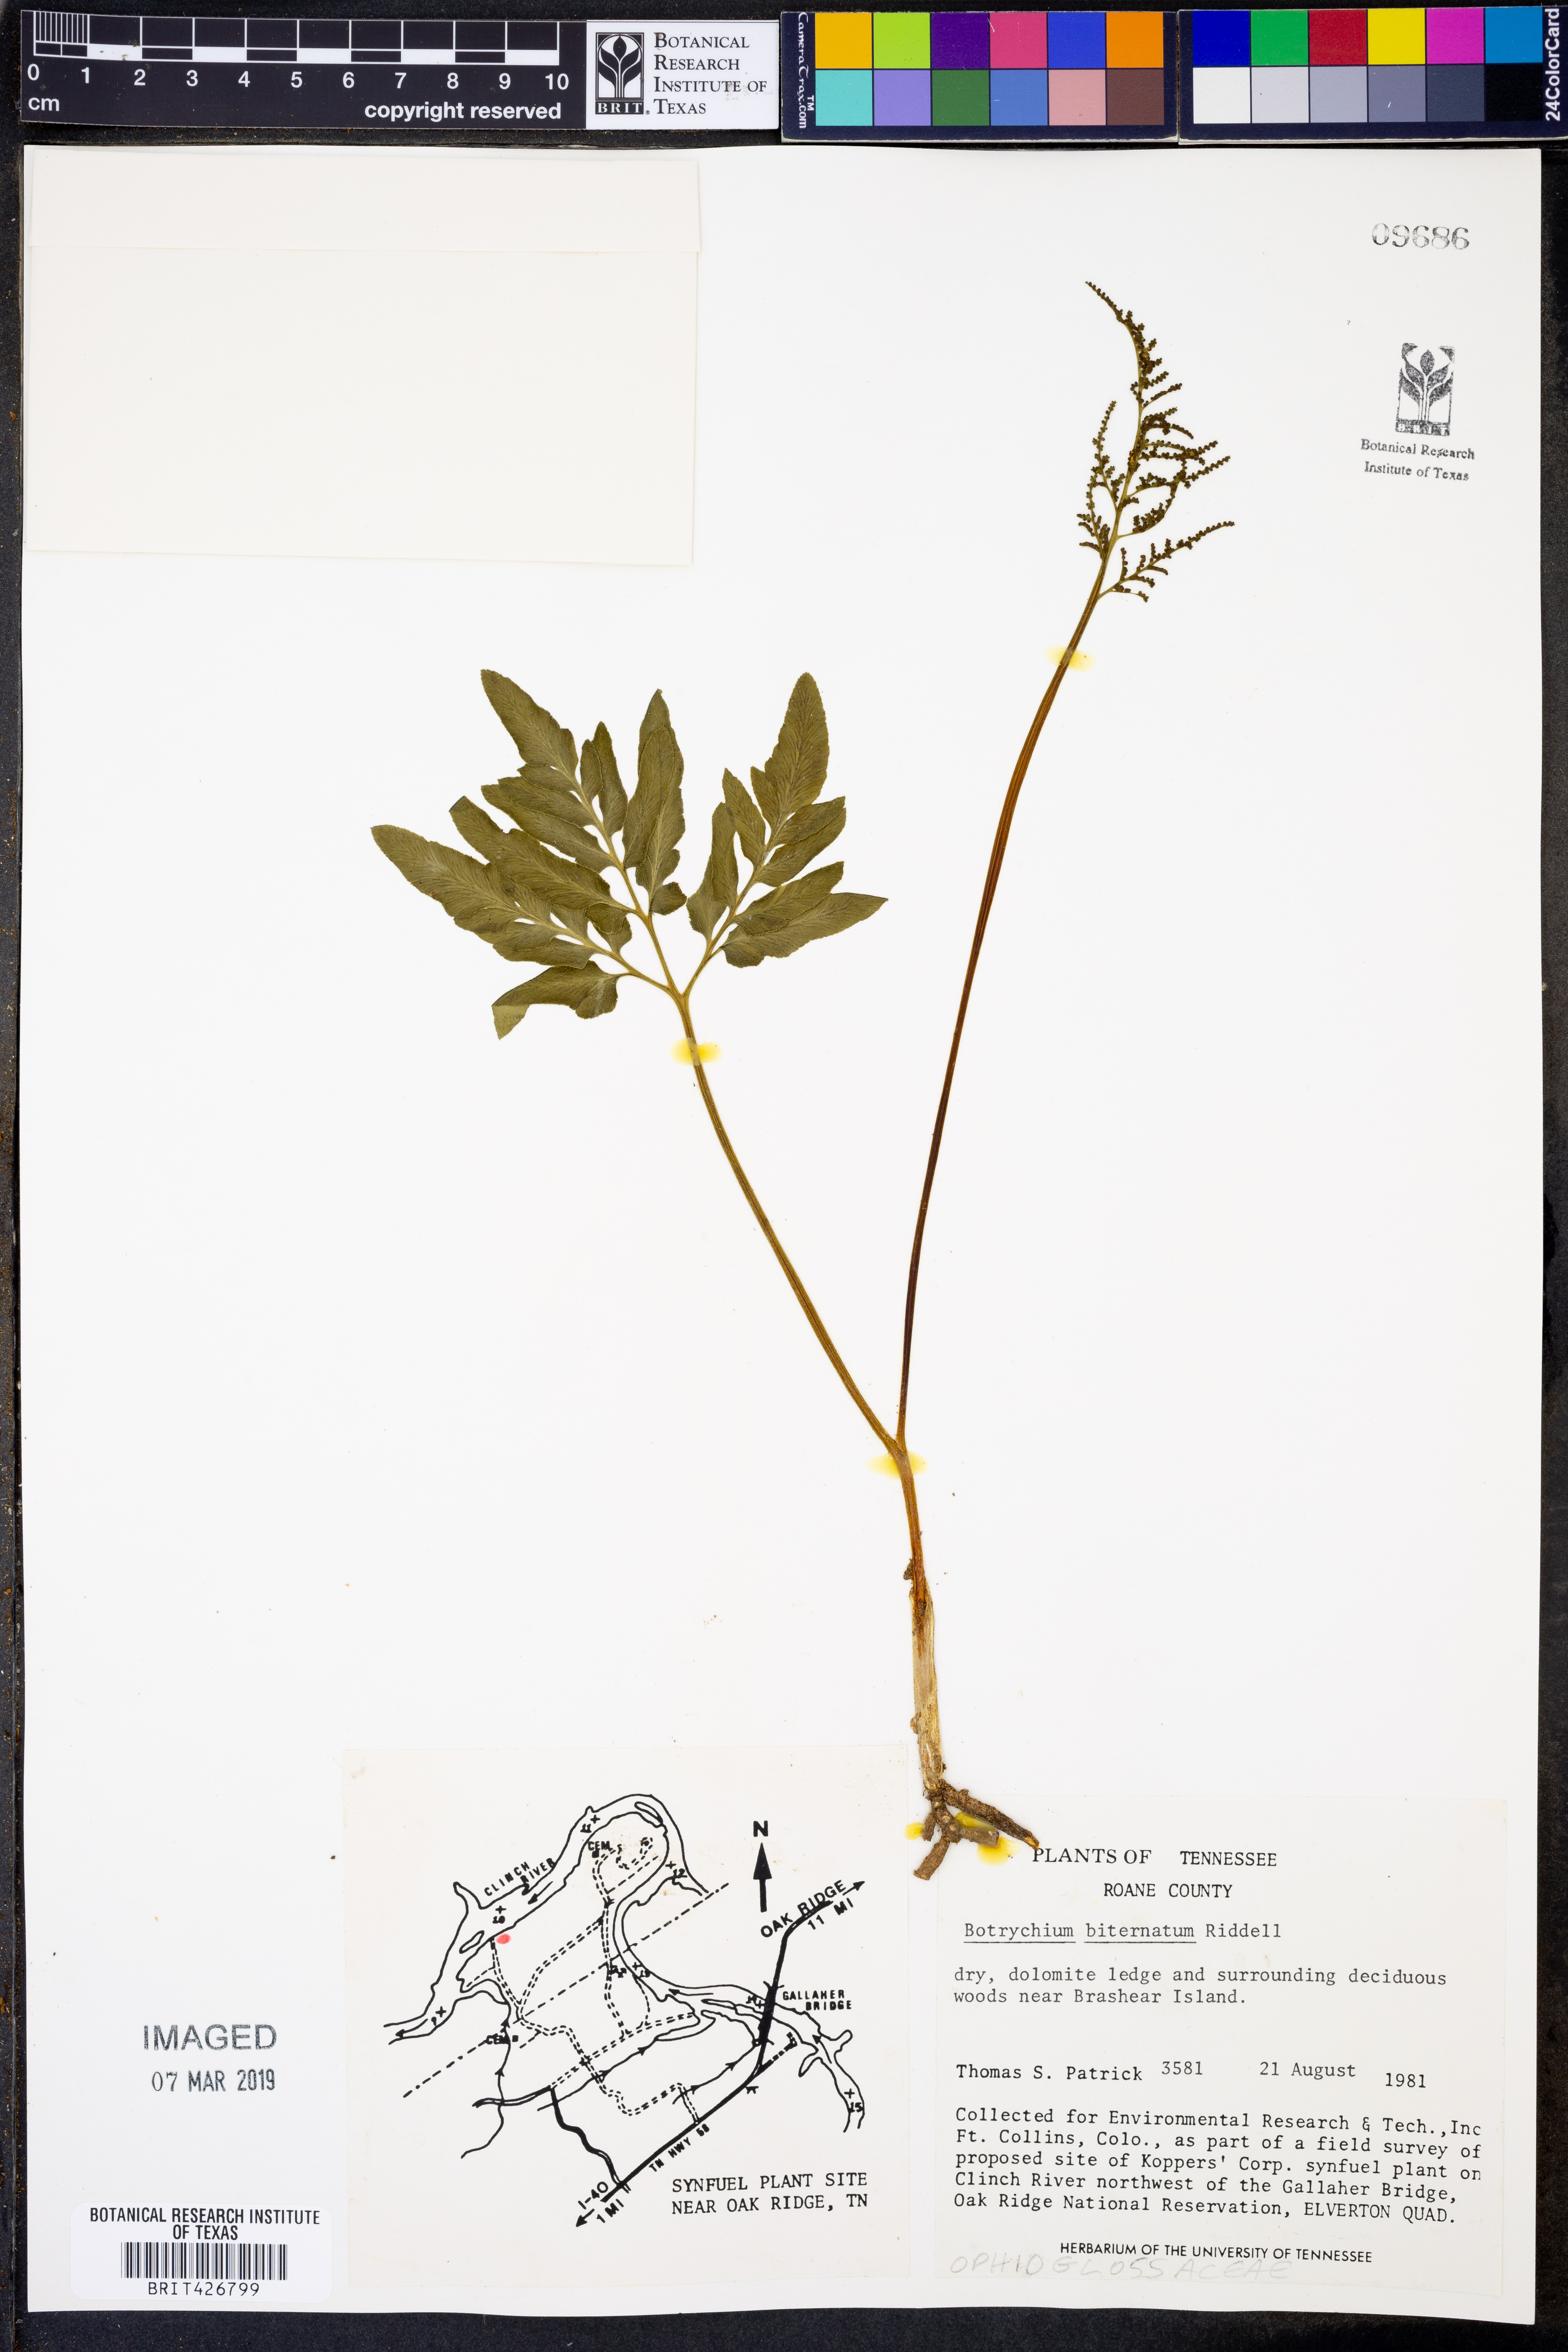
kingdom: Plantae
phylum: Tracheophyta
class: Polypodiopsida
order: Ophioglossales
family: Ophioglossaceae
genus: Sceptridium
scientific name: Sceptridium biternatum
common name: Sparse-lobed grapefern
